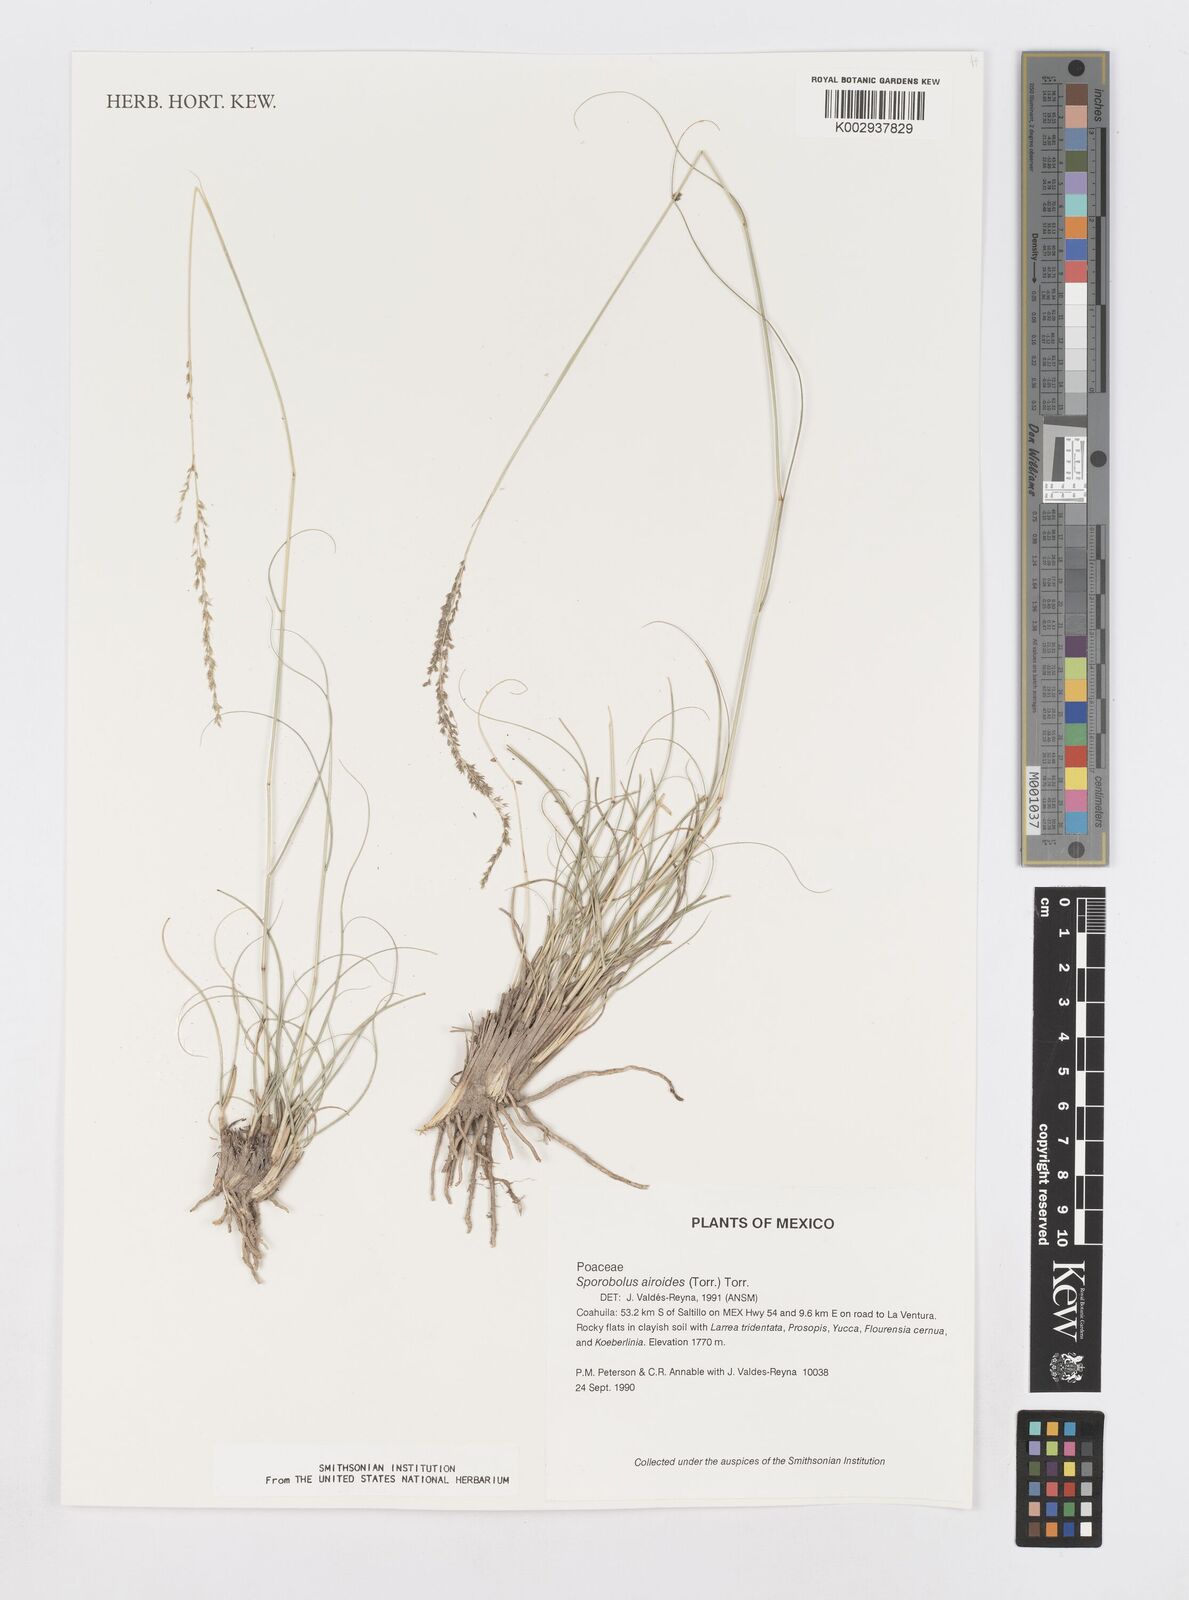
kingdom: Plantae
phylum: Tracheophyta
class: Liliopsida
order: Poales
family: Poaceae
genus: Sporobolus
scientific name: Sporobolus airoides
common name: Alkali sacaton
